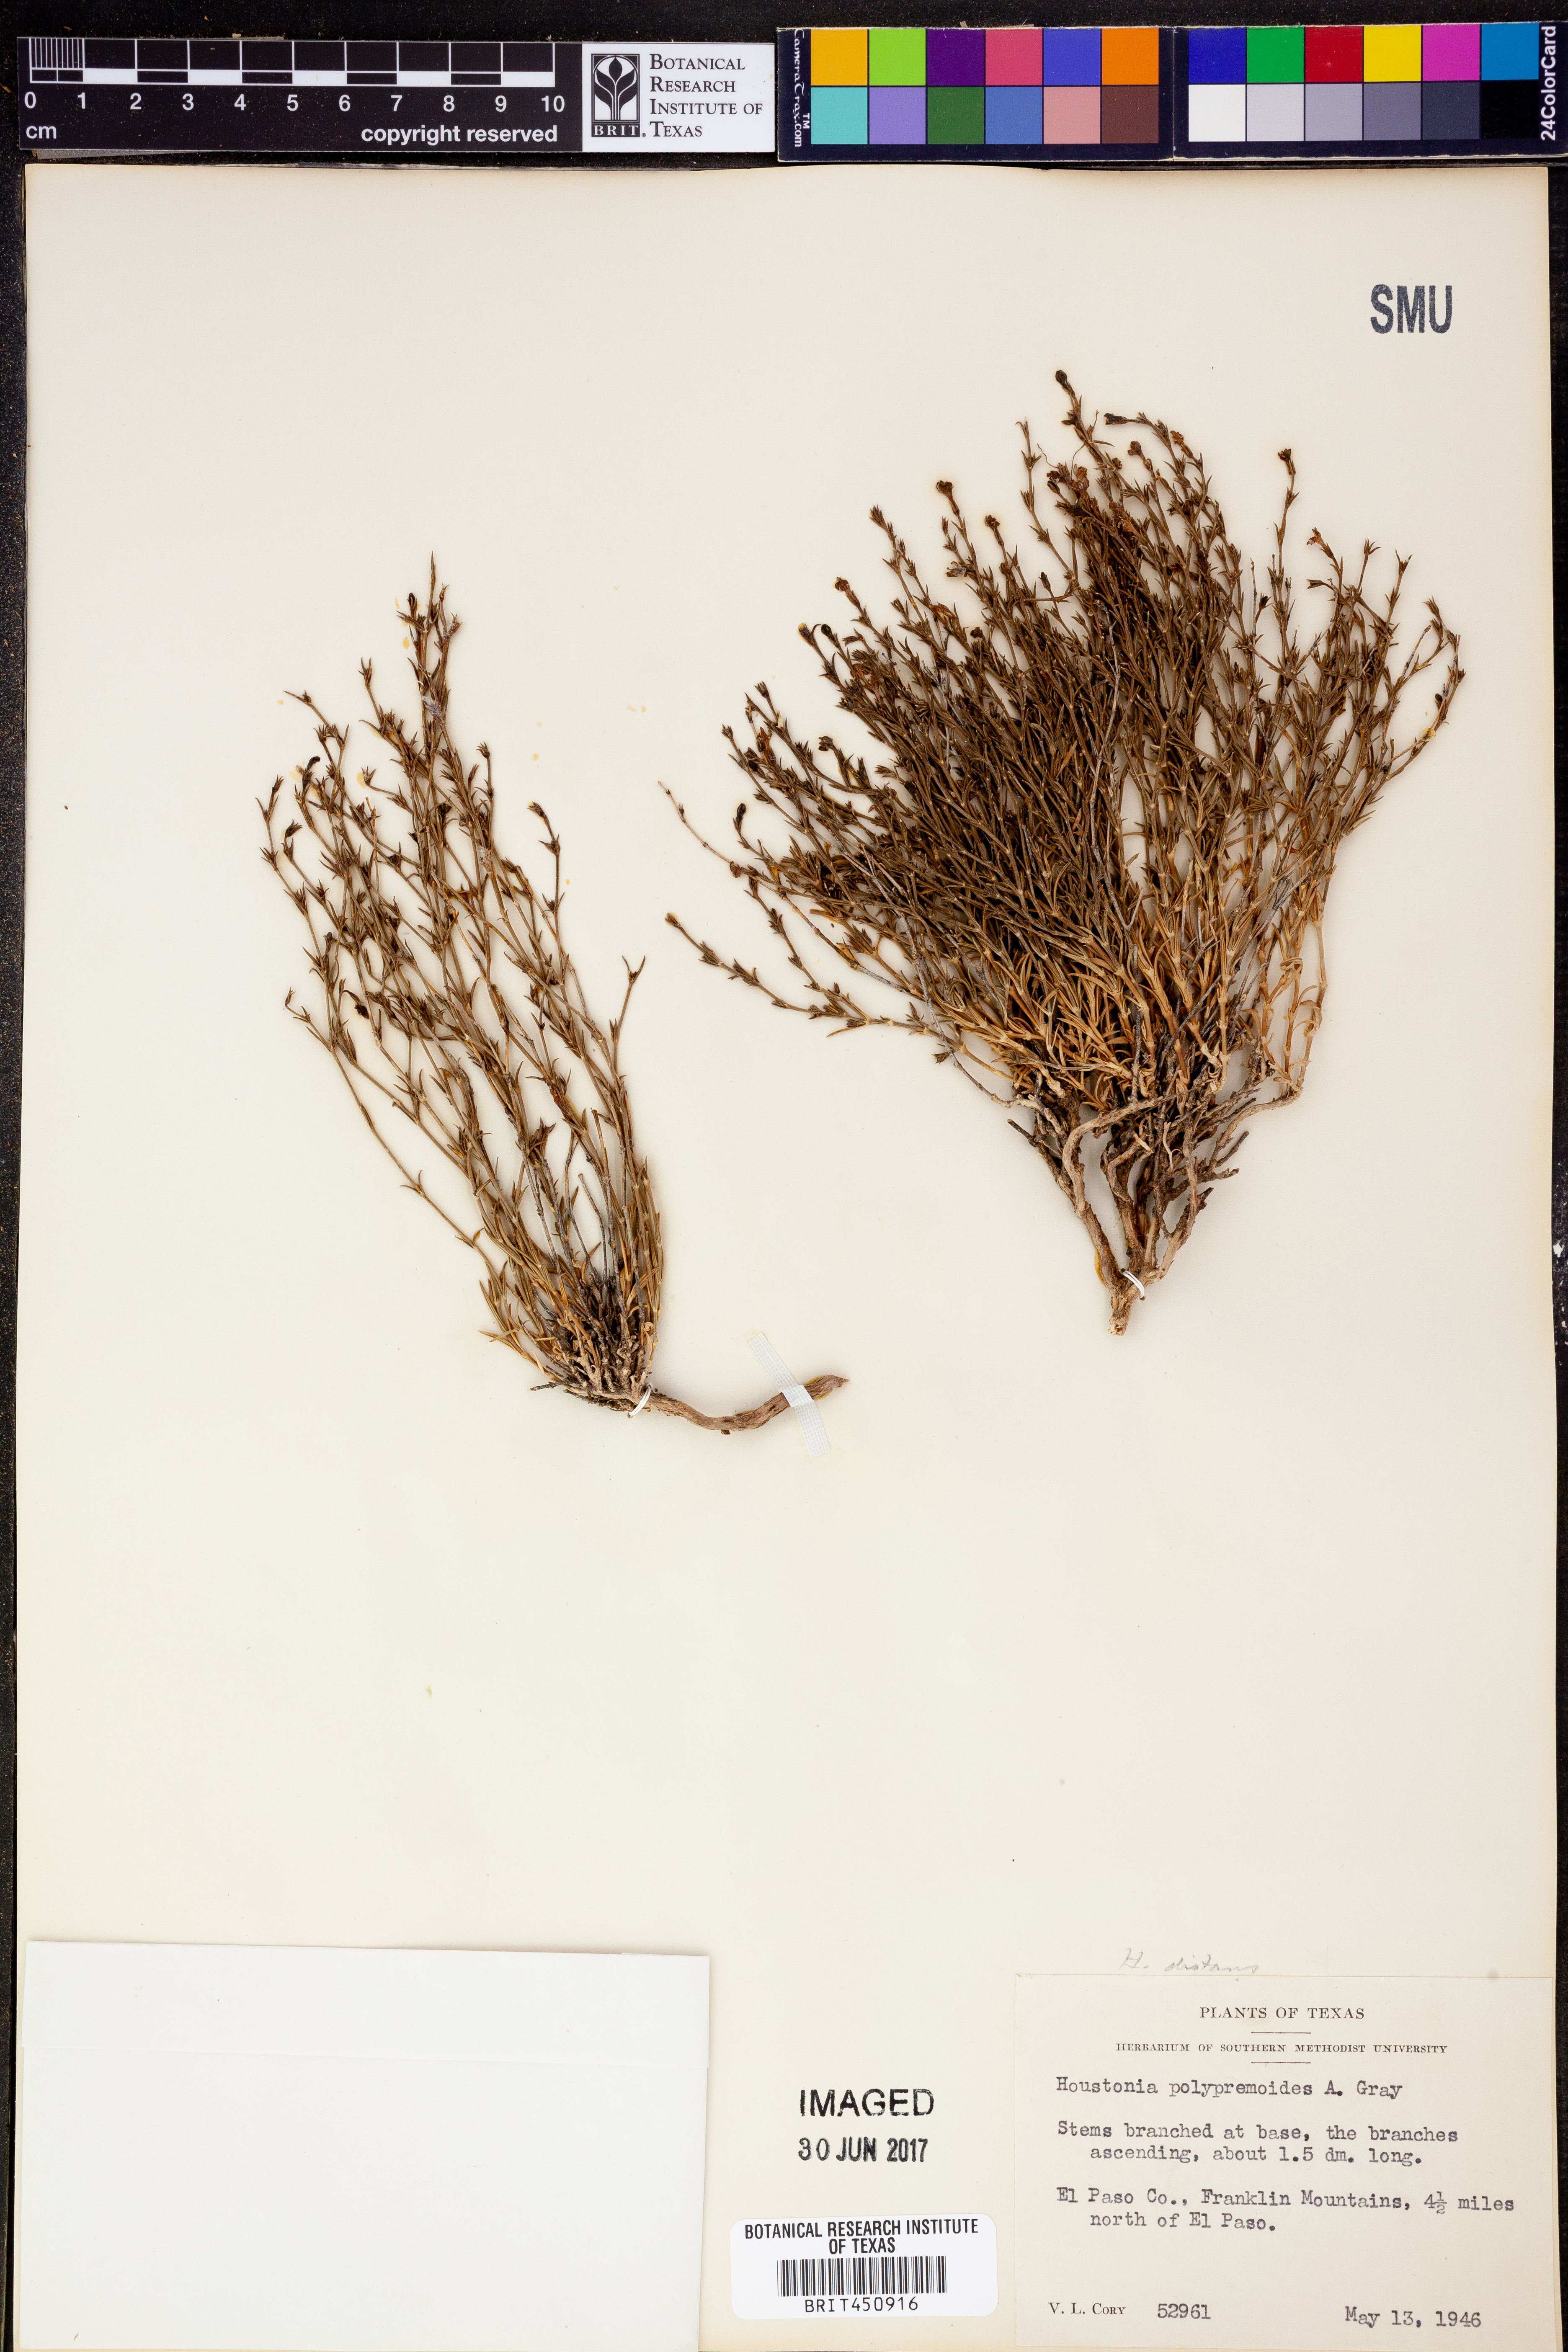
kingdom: Plantae
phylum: Tracheophyta
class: Magnoliopsida
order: Gentianales
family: Rubiaceae
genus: Houstonia
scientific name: Houstonia acerosa
